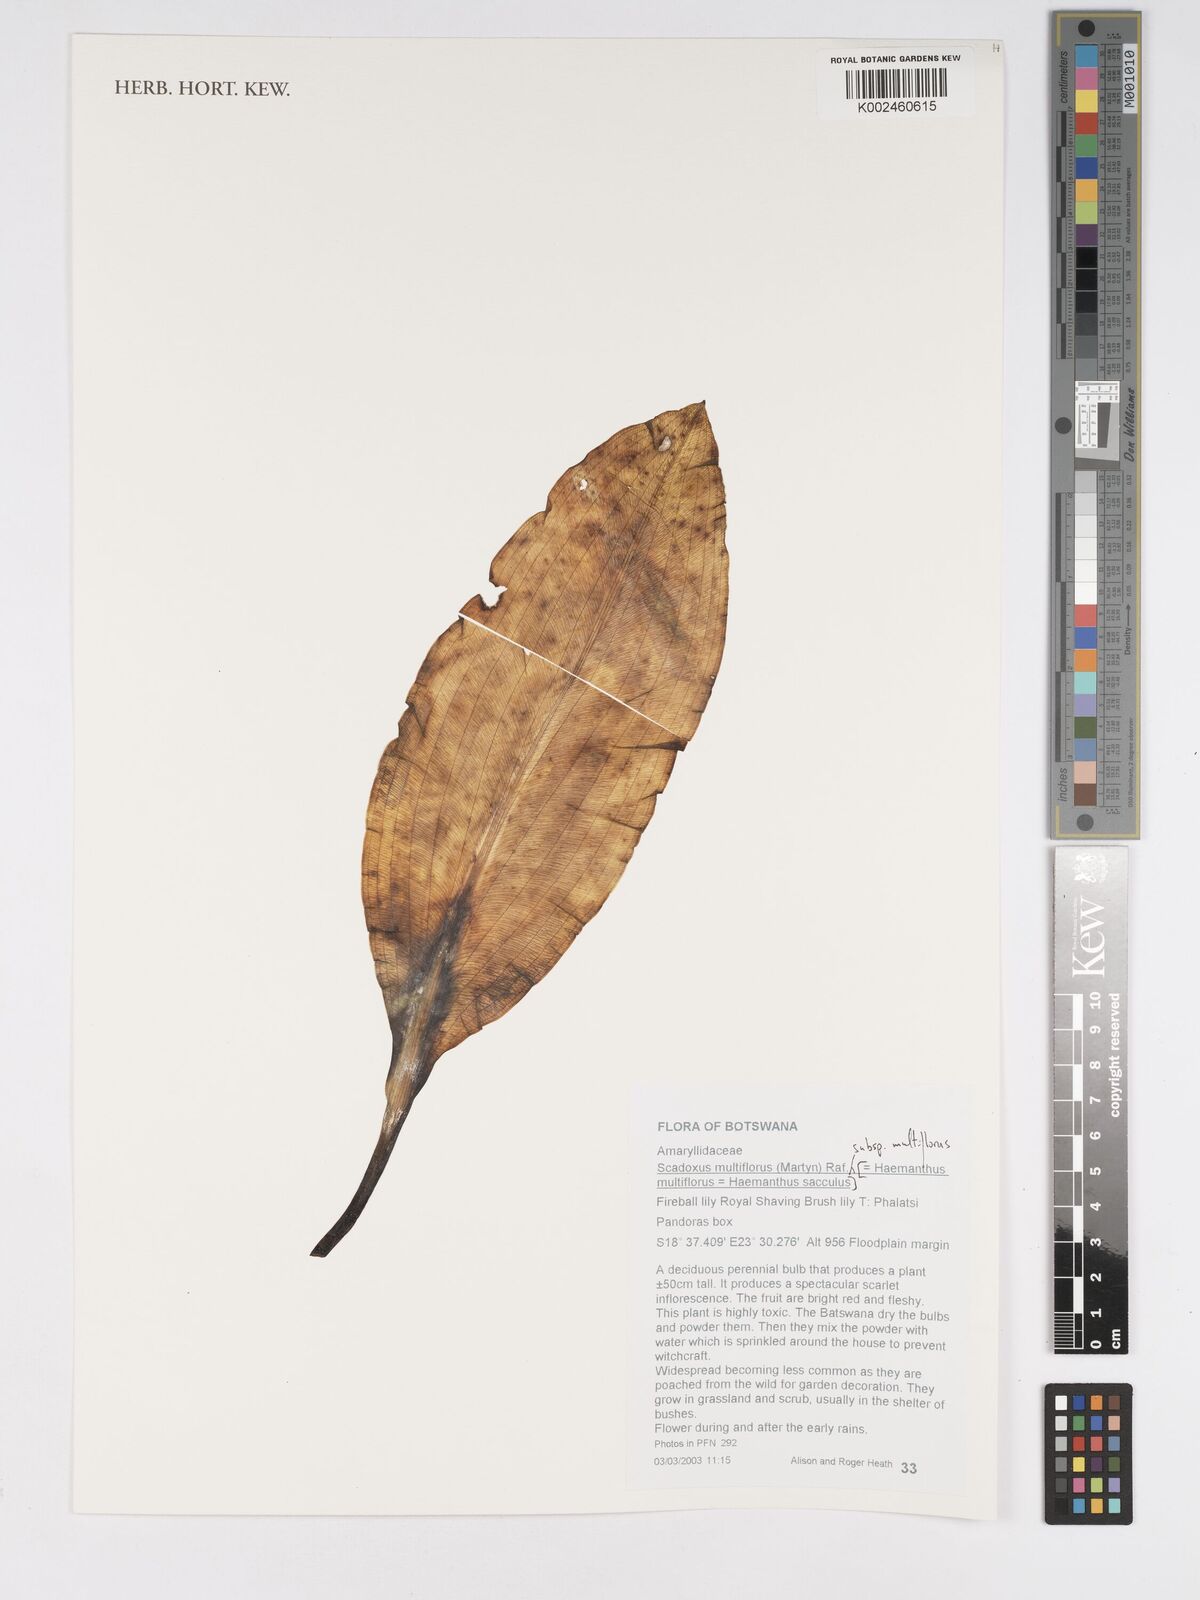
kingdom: Plantae
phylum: Tracheophyta
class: Liliopsida
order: Asparagales
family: Amaryllidaceae
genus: Scadoxus
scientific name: Scadoxus multiflorus
